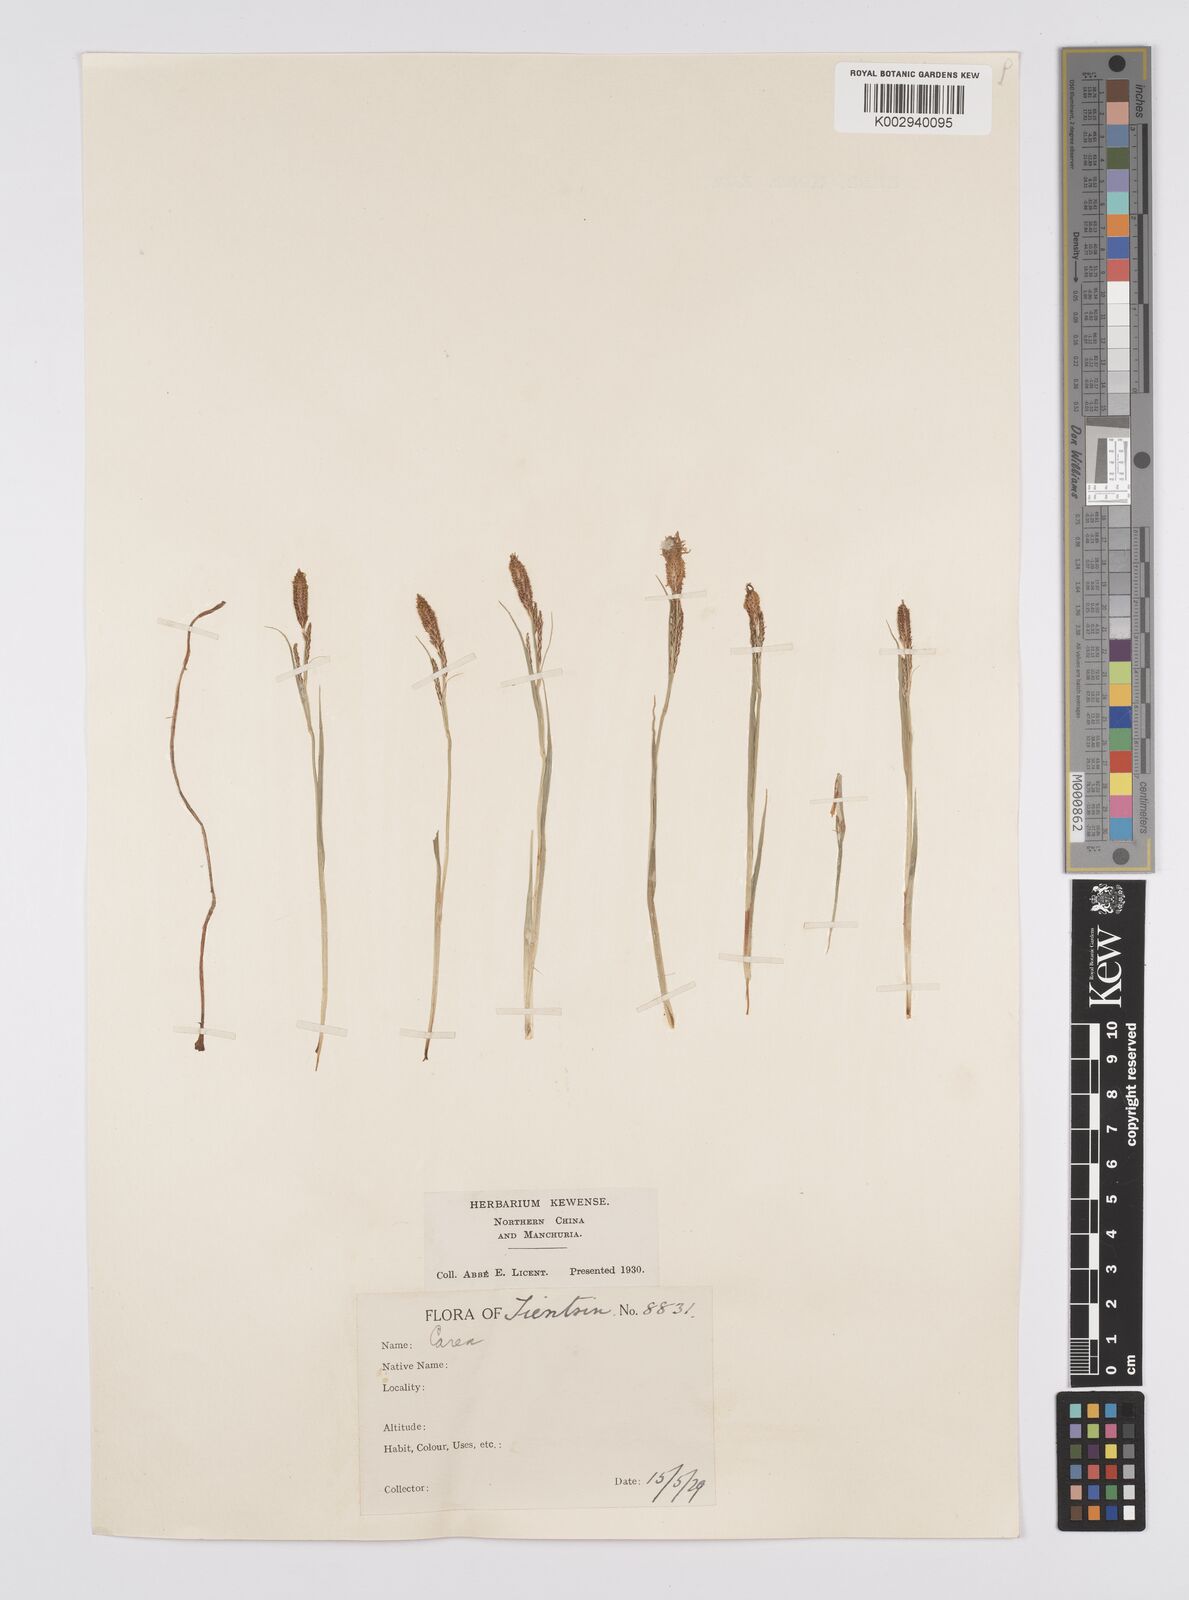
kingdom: Plantae
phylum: Tracheophyta
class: Liliopsida
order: Poales
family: Cyperaceae
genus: Carex
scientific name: Carex thunbergii
